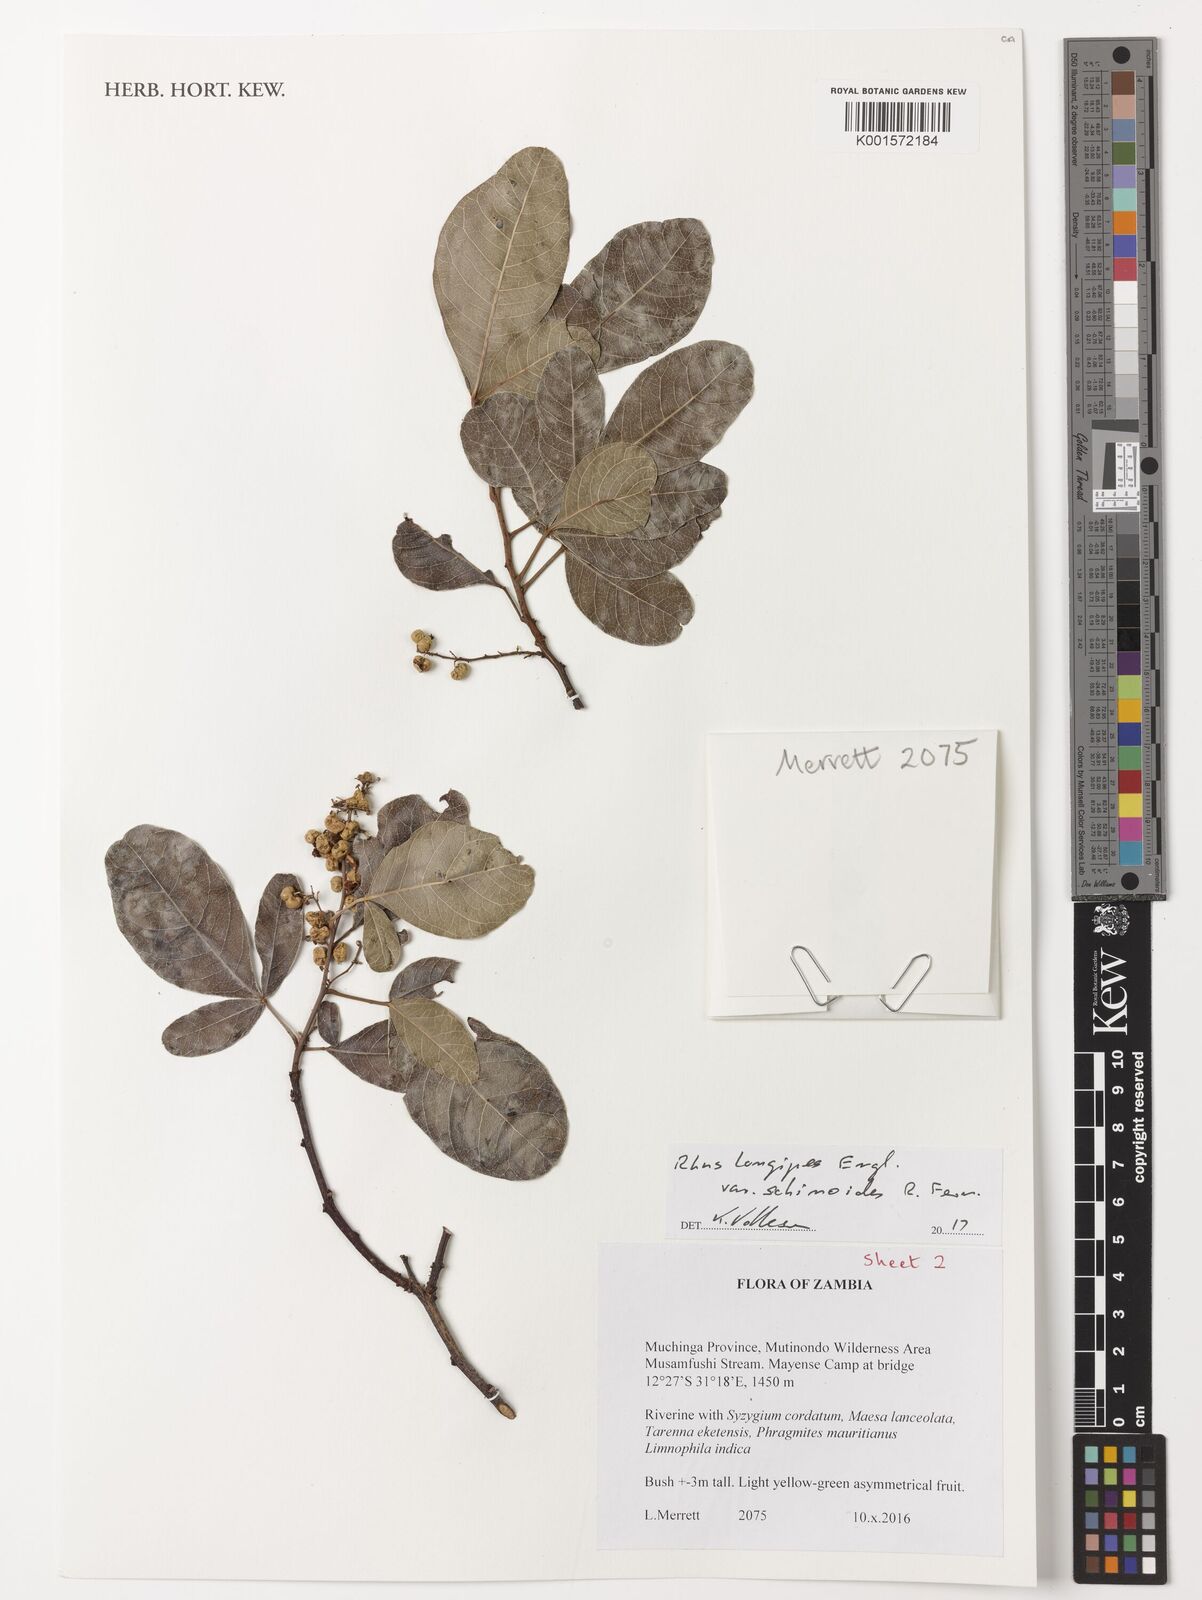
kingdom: Plantae
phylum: Tracheophyta
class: Magnoliopsida
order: Sapindales
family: Anacardiaceae
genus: Searsia
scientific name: Searsia longipes
